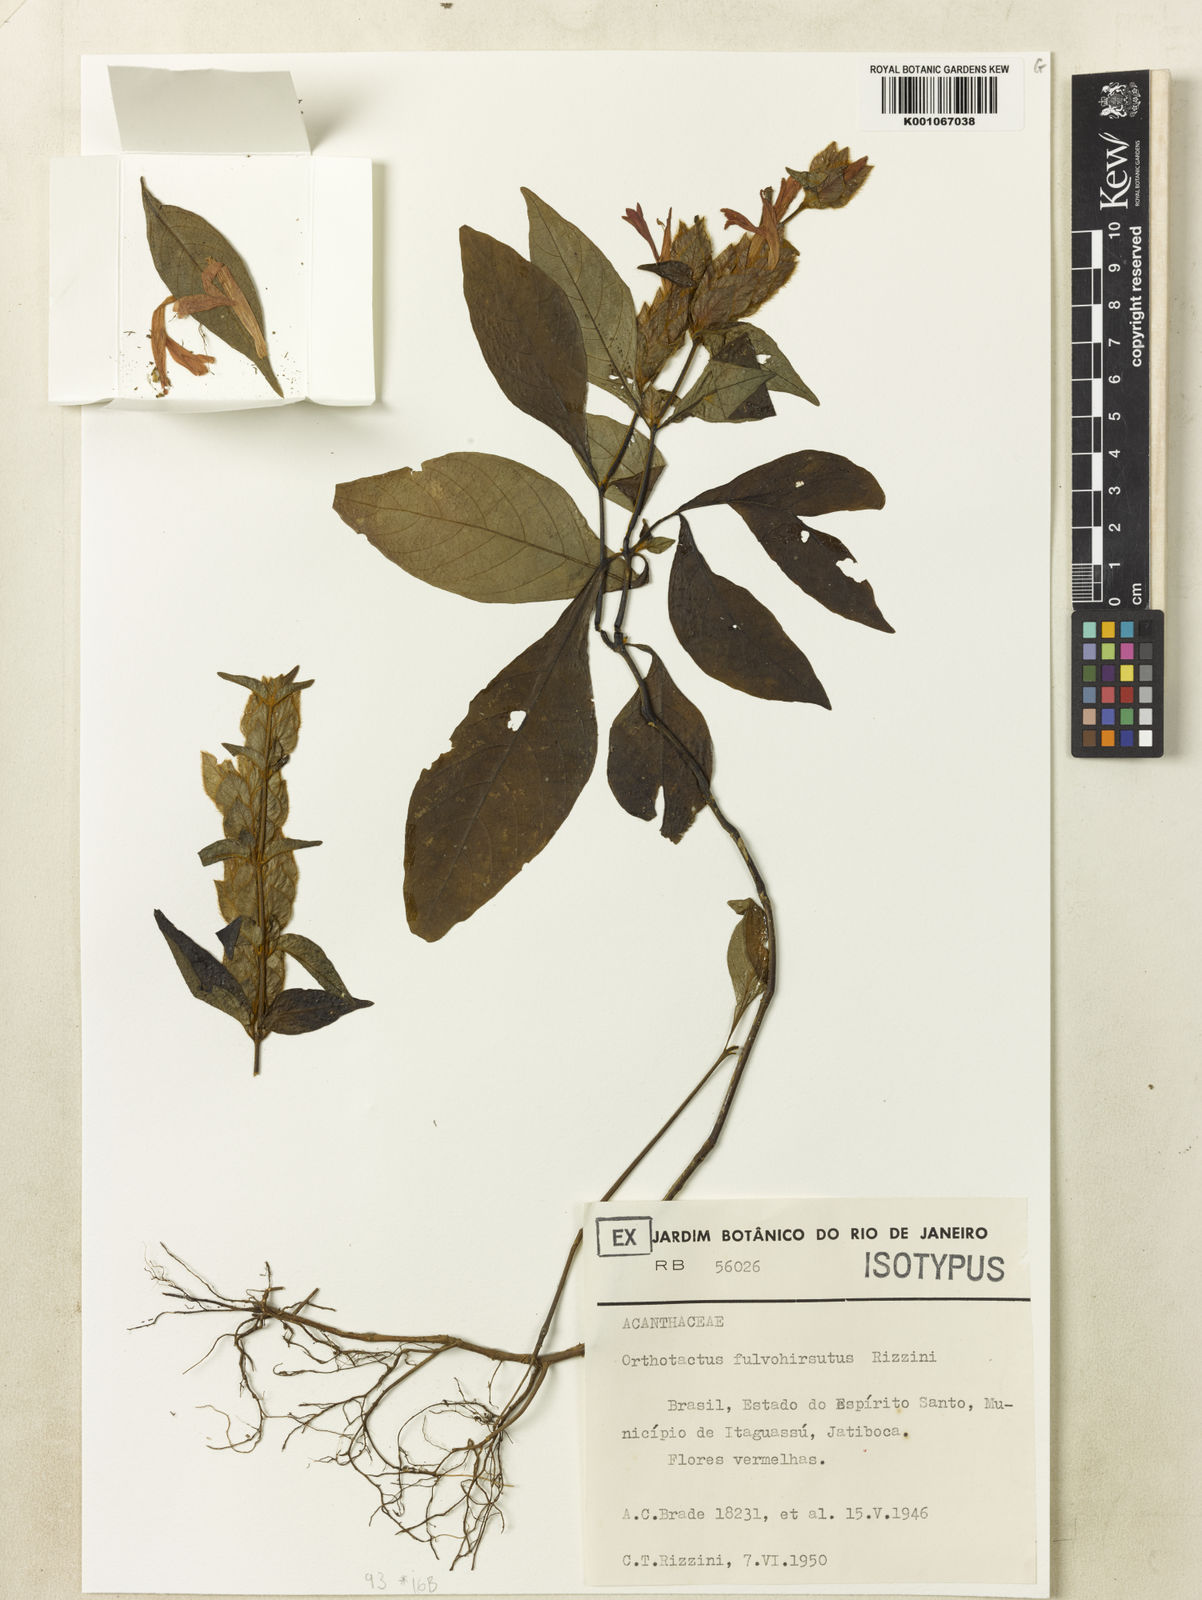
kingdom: Plantae
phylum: Tracheophyta
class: Magnoliopsida
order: Lamiales
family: Acanthaceae
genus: Justicia
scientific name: Justicia fulvohirsuta
